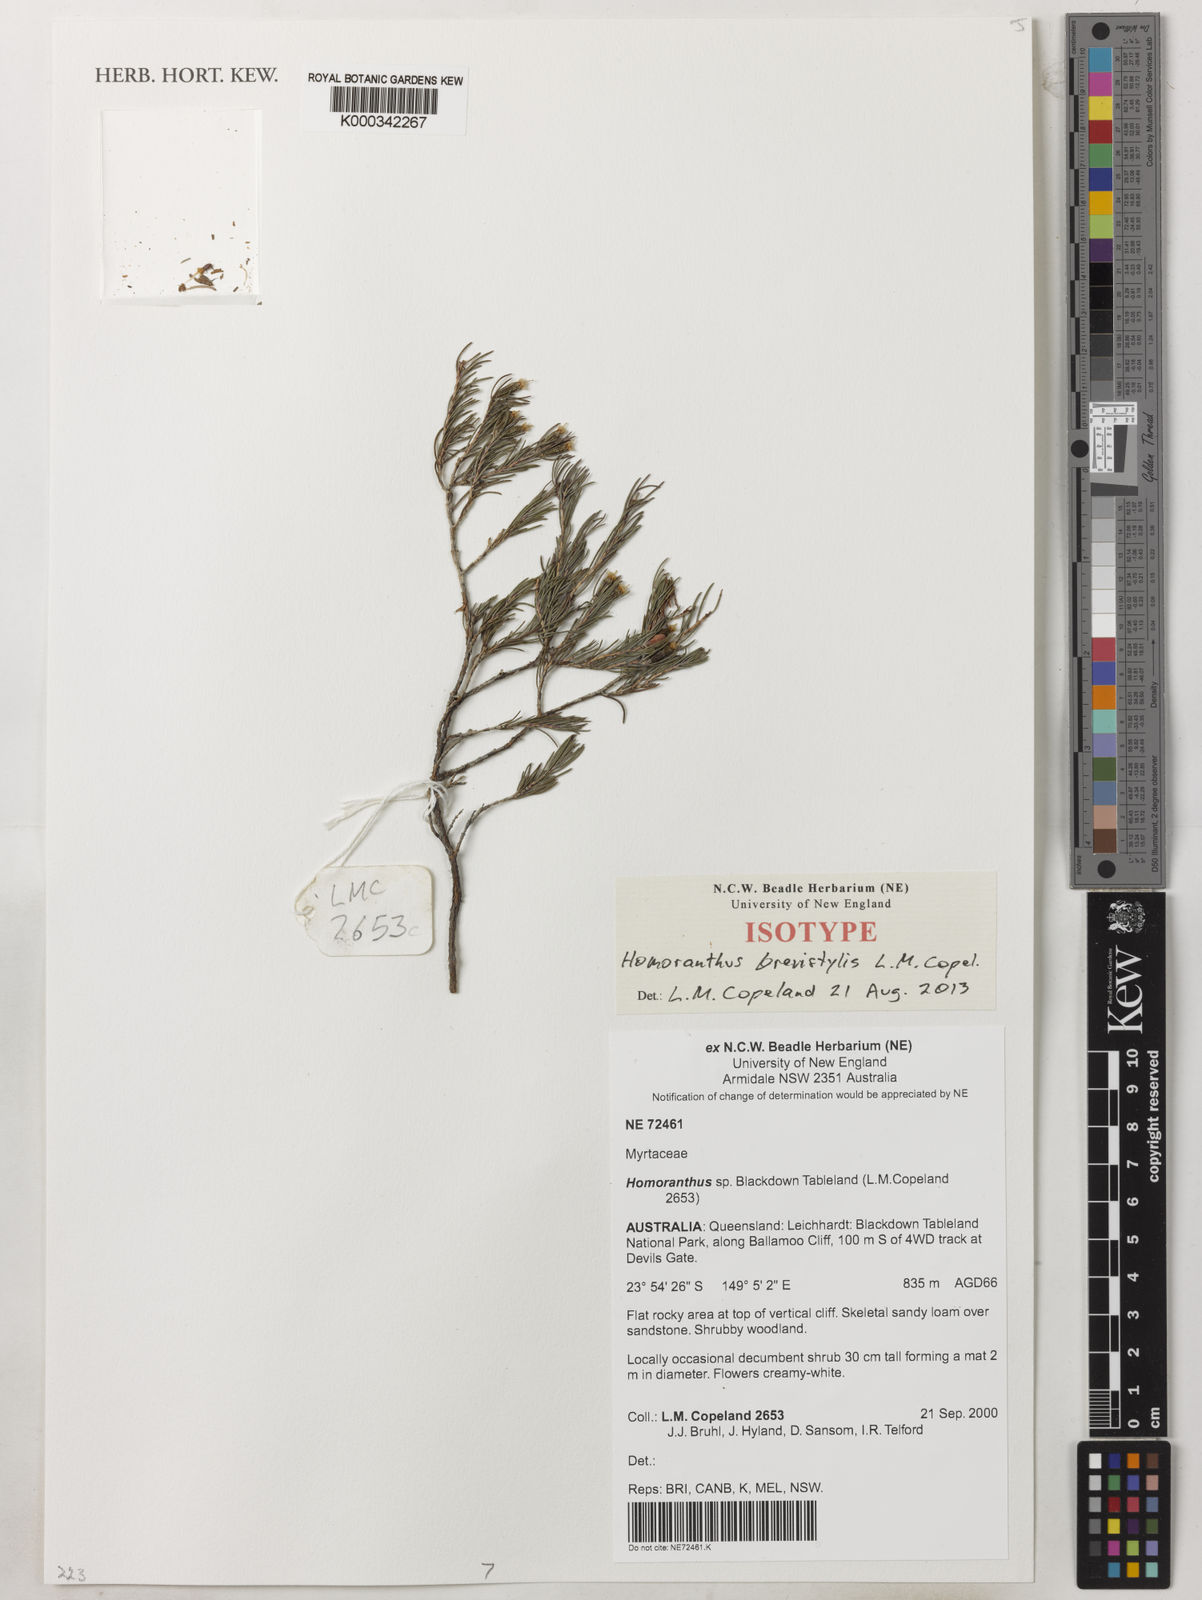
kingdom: Plantae
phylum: Tracheophyta
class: Magnoliopsida
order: Myrtales
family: Myrtaceae
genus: Homoranthus
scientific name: Homoranthus brevistylis
